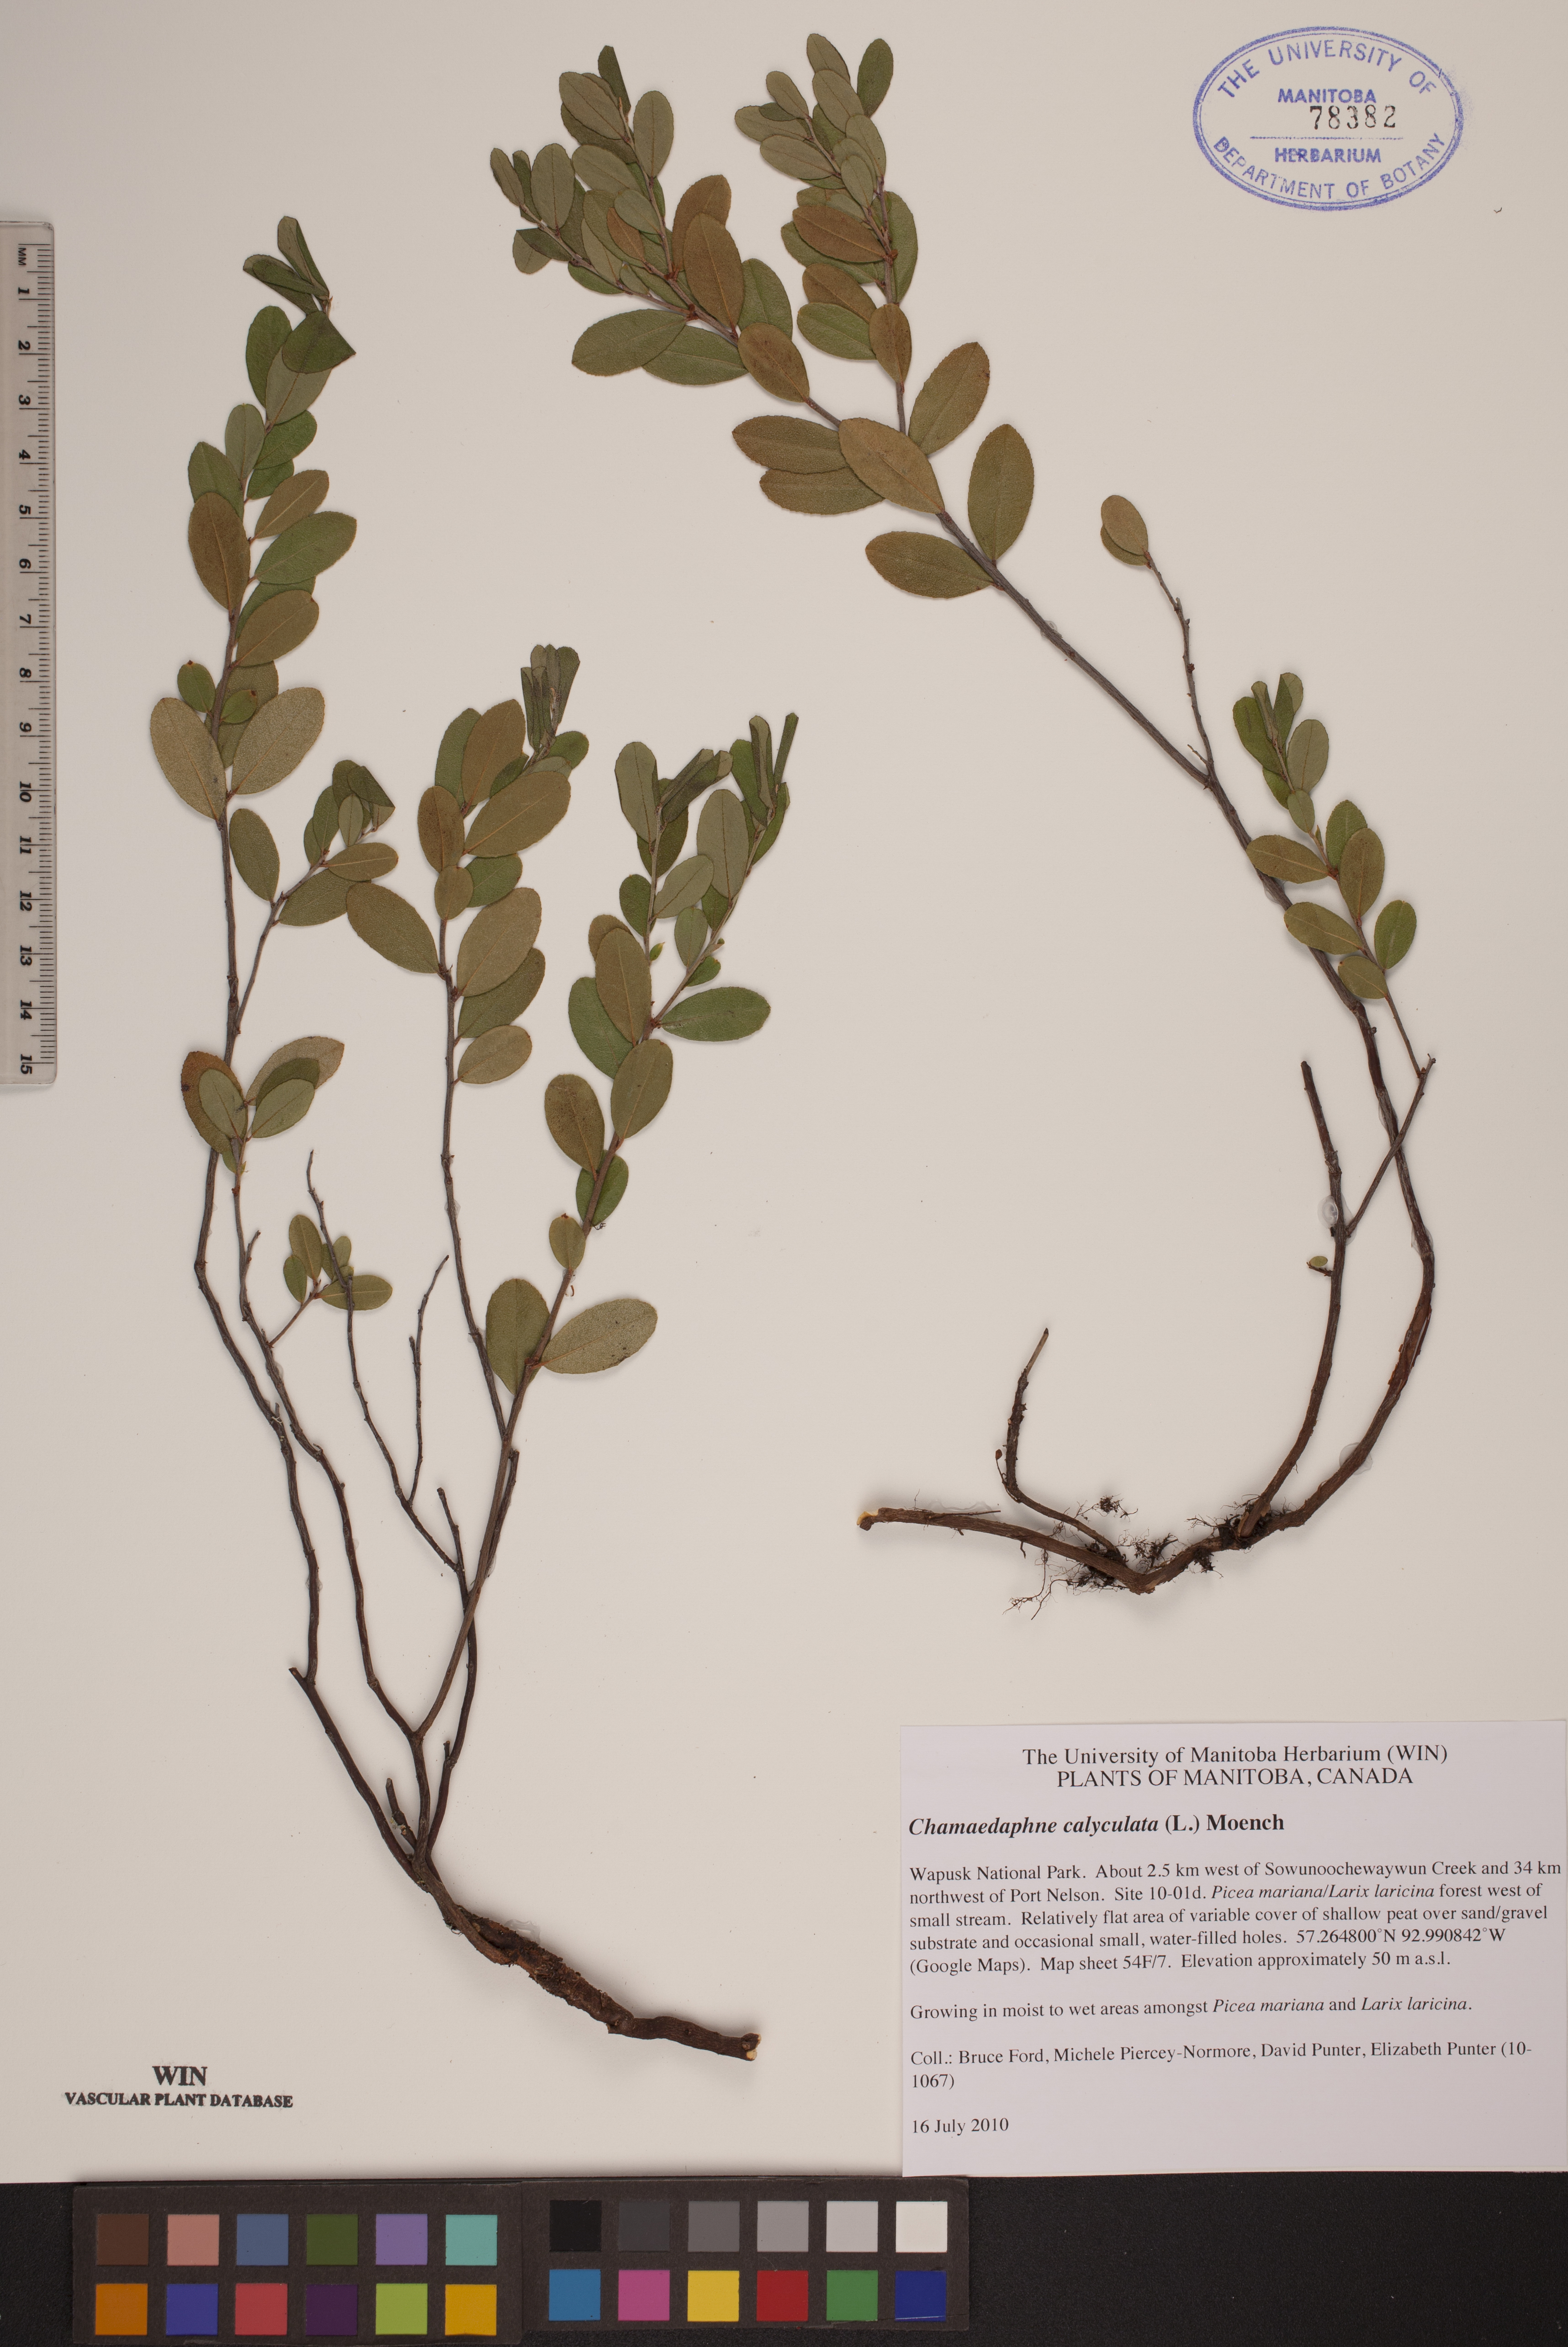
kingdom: Plantae
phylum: Tracheophyta
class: Magnoliopsida
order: Ericales
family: Ericaceae
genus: Chamaedaphne
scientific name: Chamaedaphne calyculata
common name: Leatherleaf
